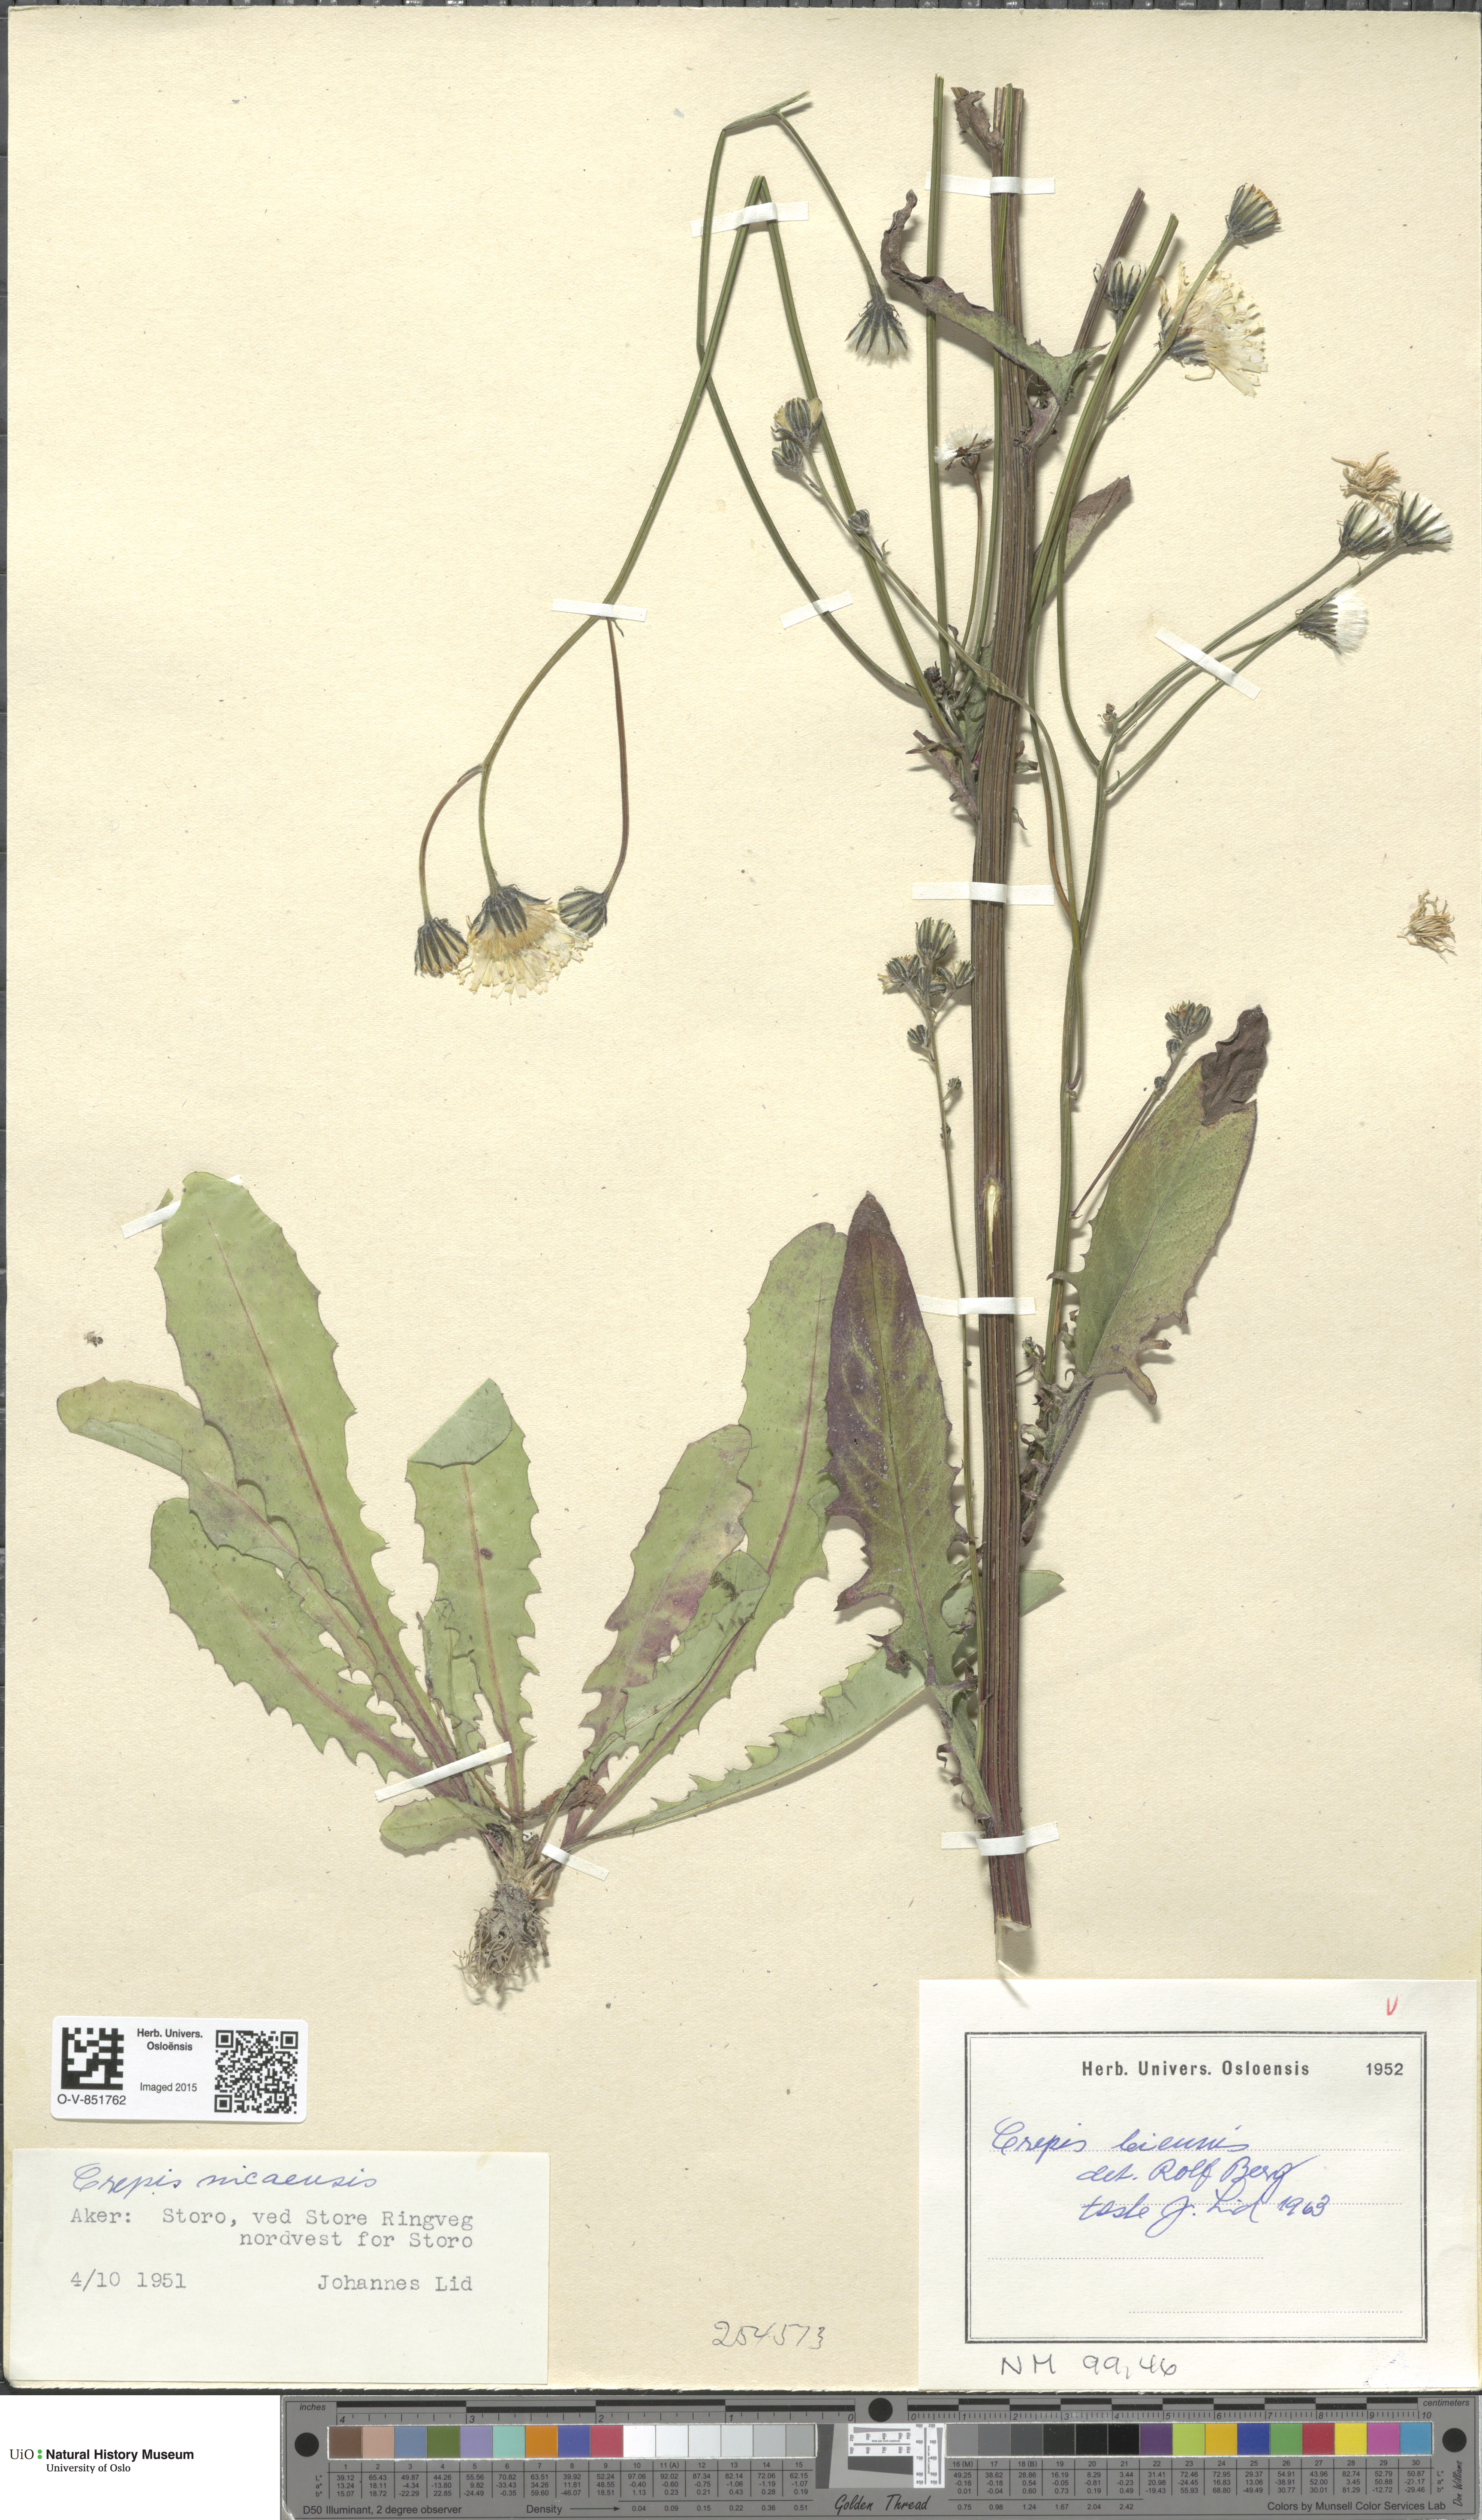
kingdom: Plantae
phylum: Tracheophyta
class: Magnoliopsida
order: Asterales
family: Asteraceae
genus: Crepis
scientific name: Crepis biennis
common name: Rough hawk's-beard
